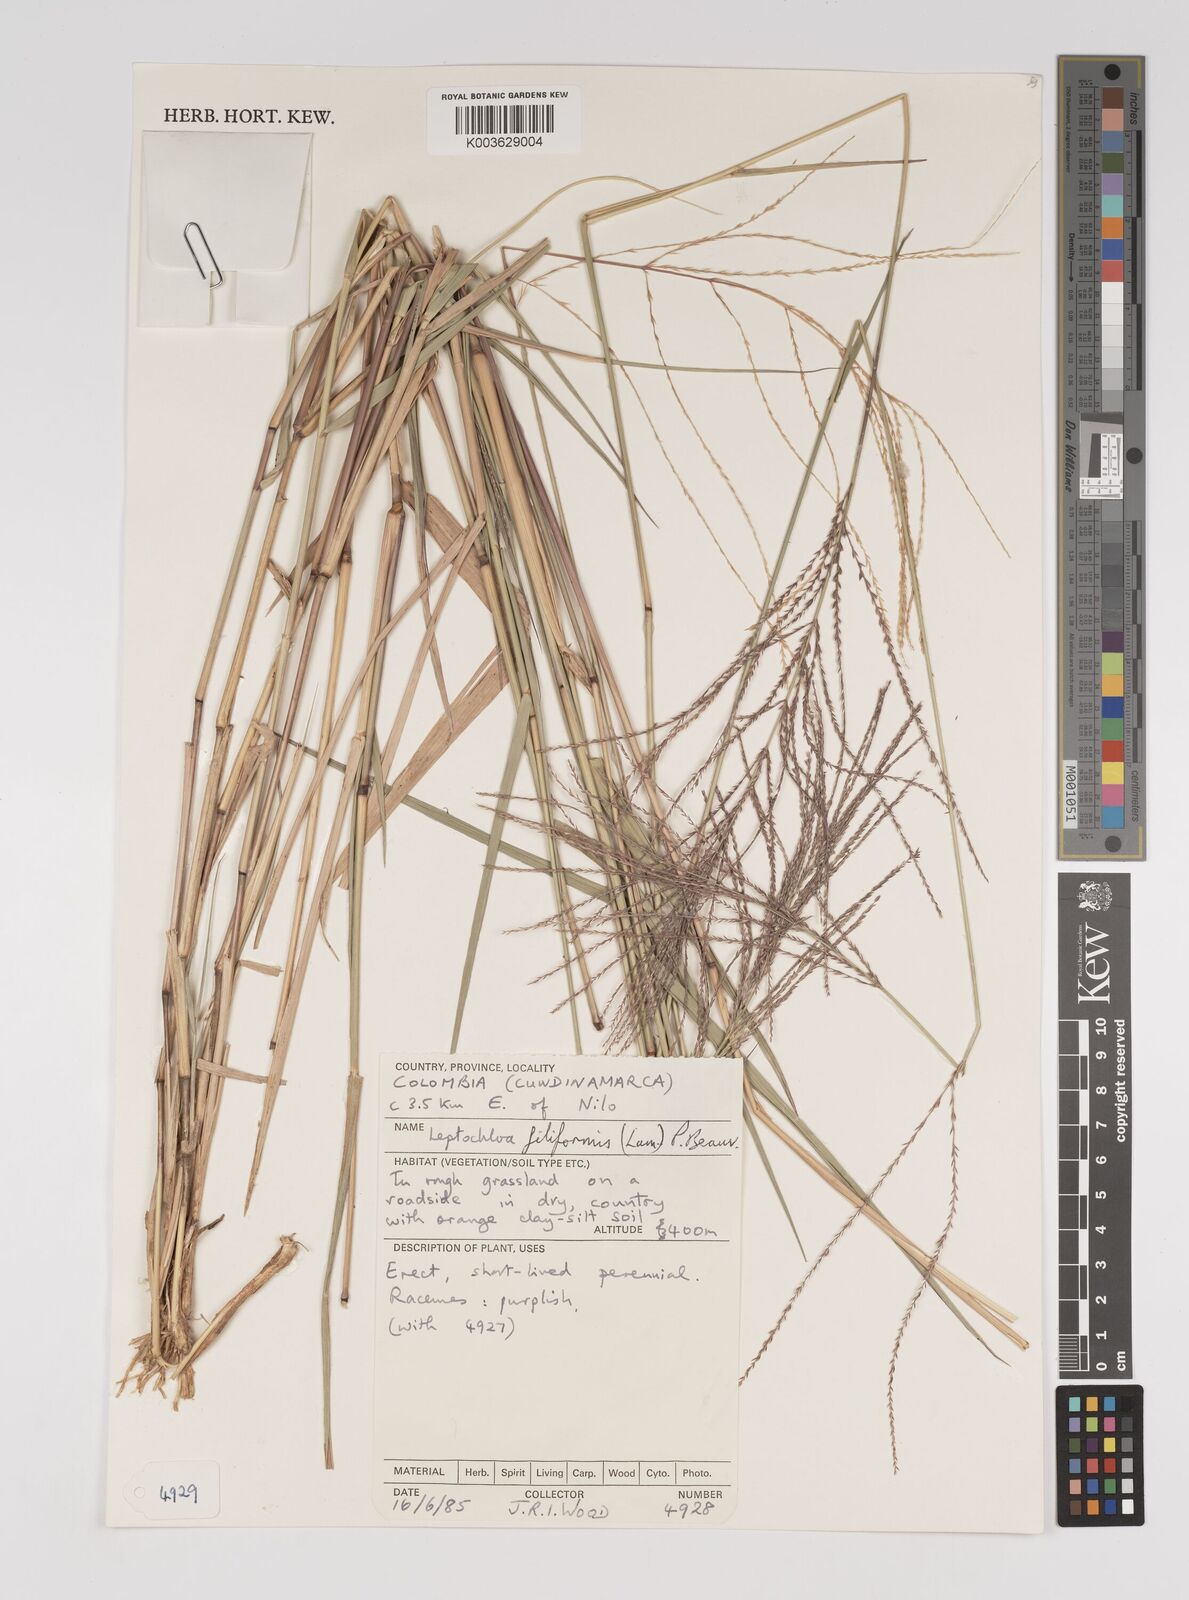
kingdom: Plantae
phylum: Tracheophyta
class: Liliopsida
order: Poales
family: Poaceae
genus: Leptochloa
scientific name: Leptochloa panicea
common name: Mucronate sprangletop
